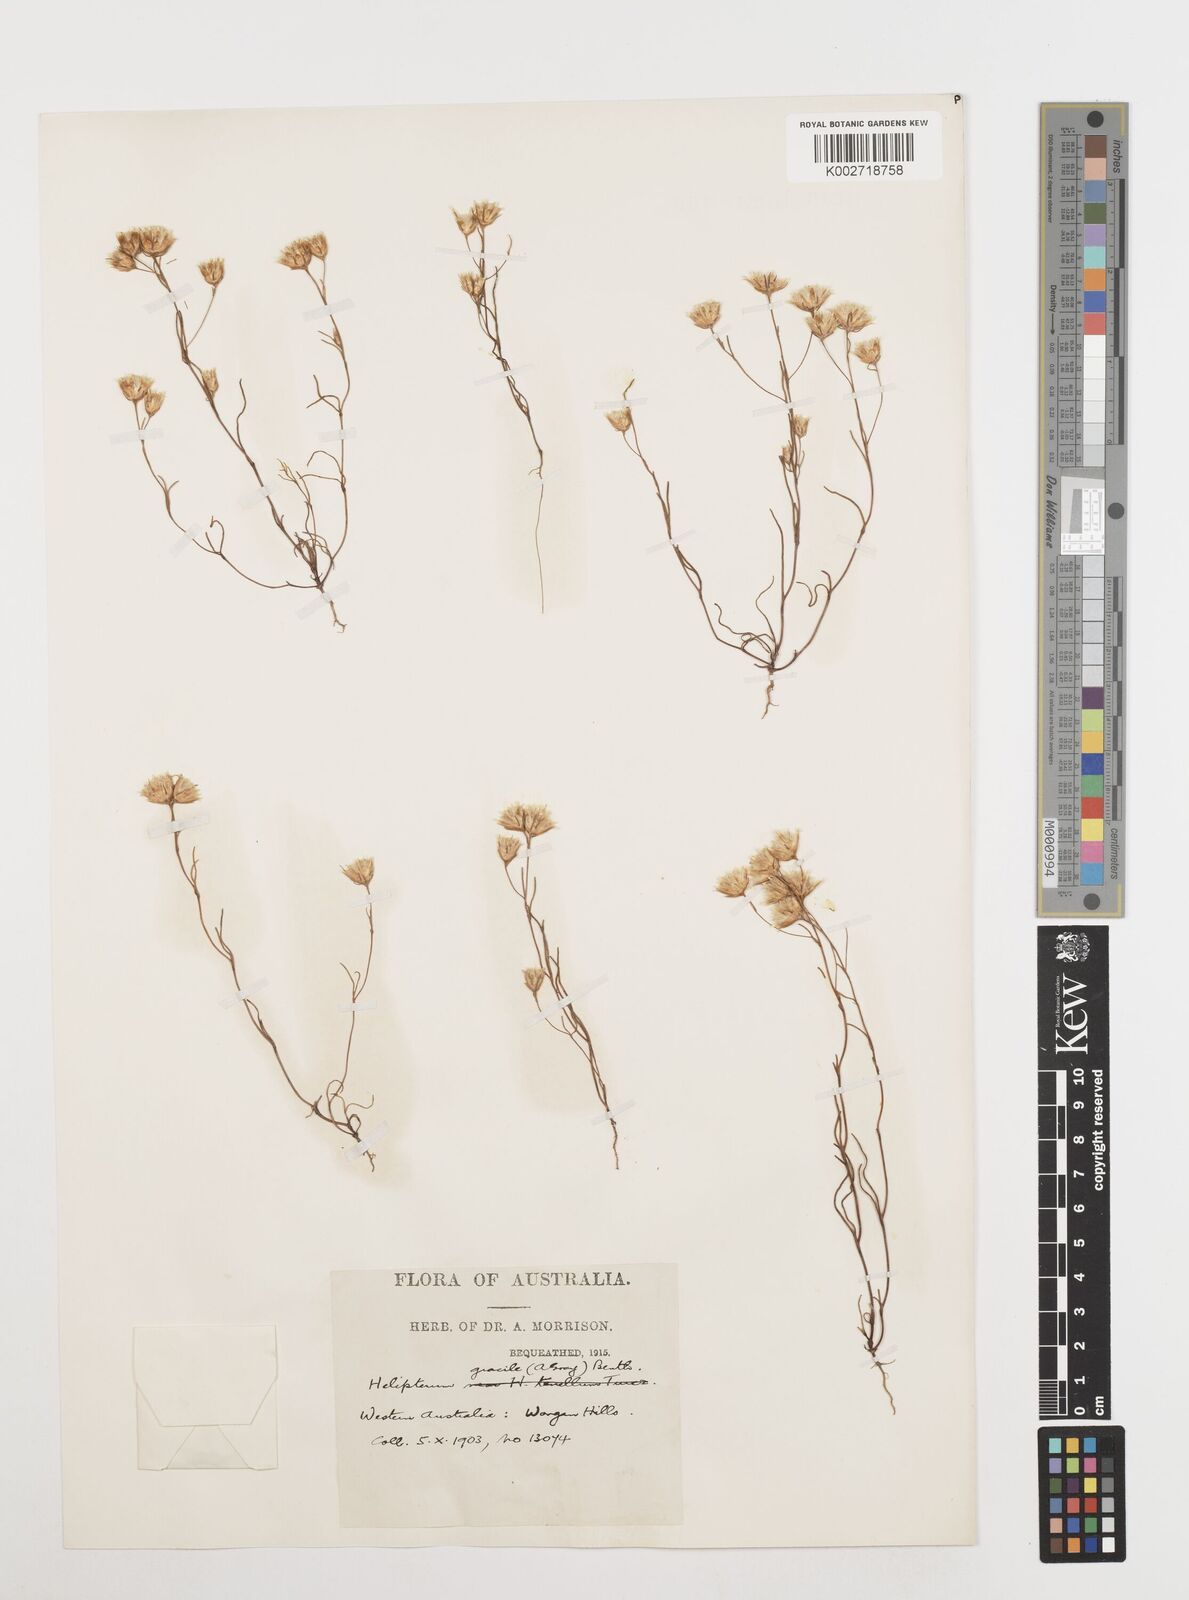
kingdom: Plantae
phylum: Tracheophyta
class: Magnoliopsida
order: Asterales
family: Asteraceae
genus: Erymophyllum
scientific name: Erymophyllum tenellum
